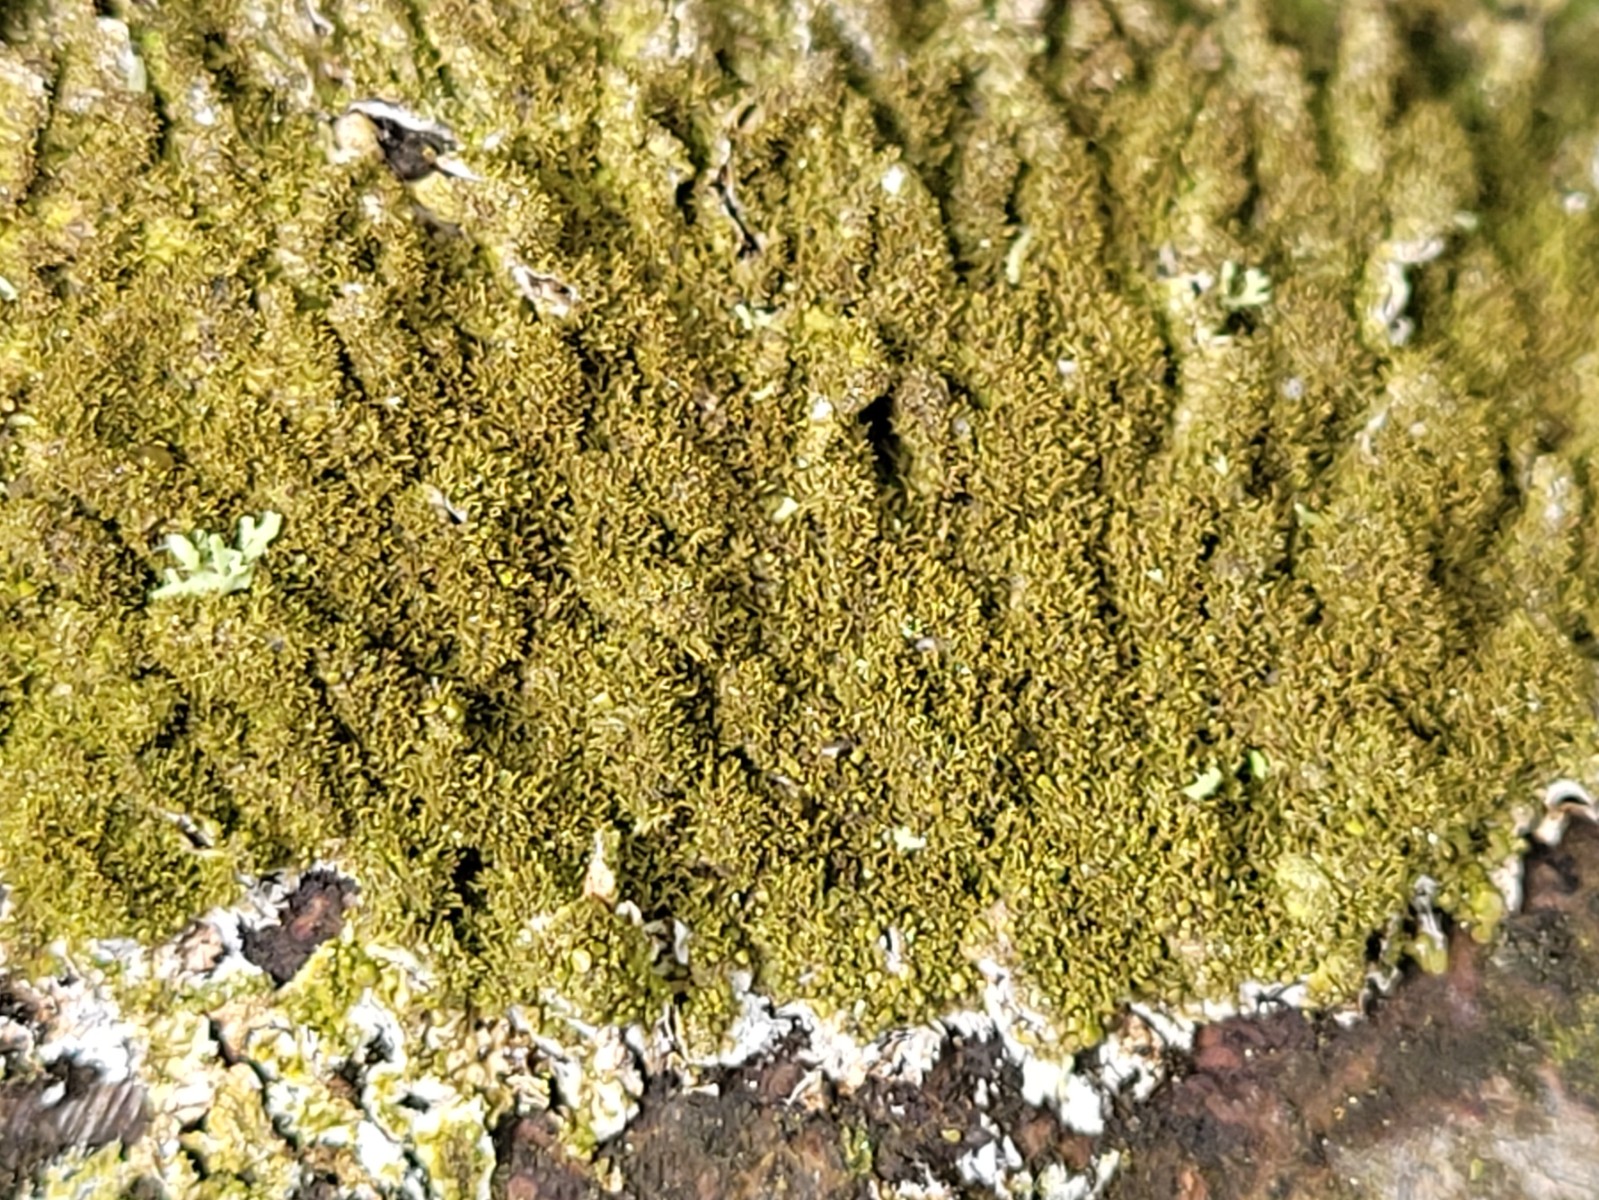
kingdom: Fungi
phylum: Ascomycota
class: Lecanoromycetes
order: Lecanorales
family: Parmeliaceae
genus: Melanohalea
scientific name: Melanohalea exasperatula
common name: kølle-skållav
